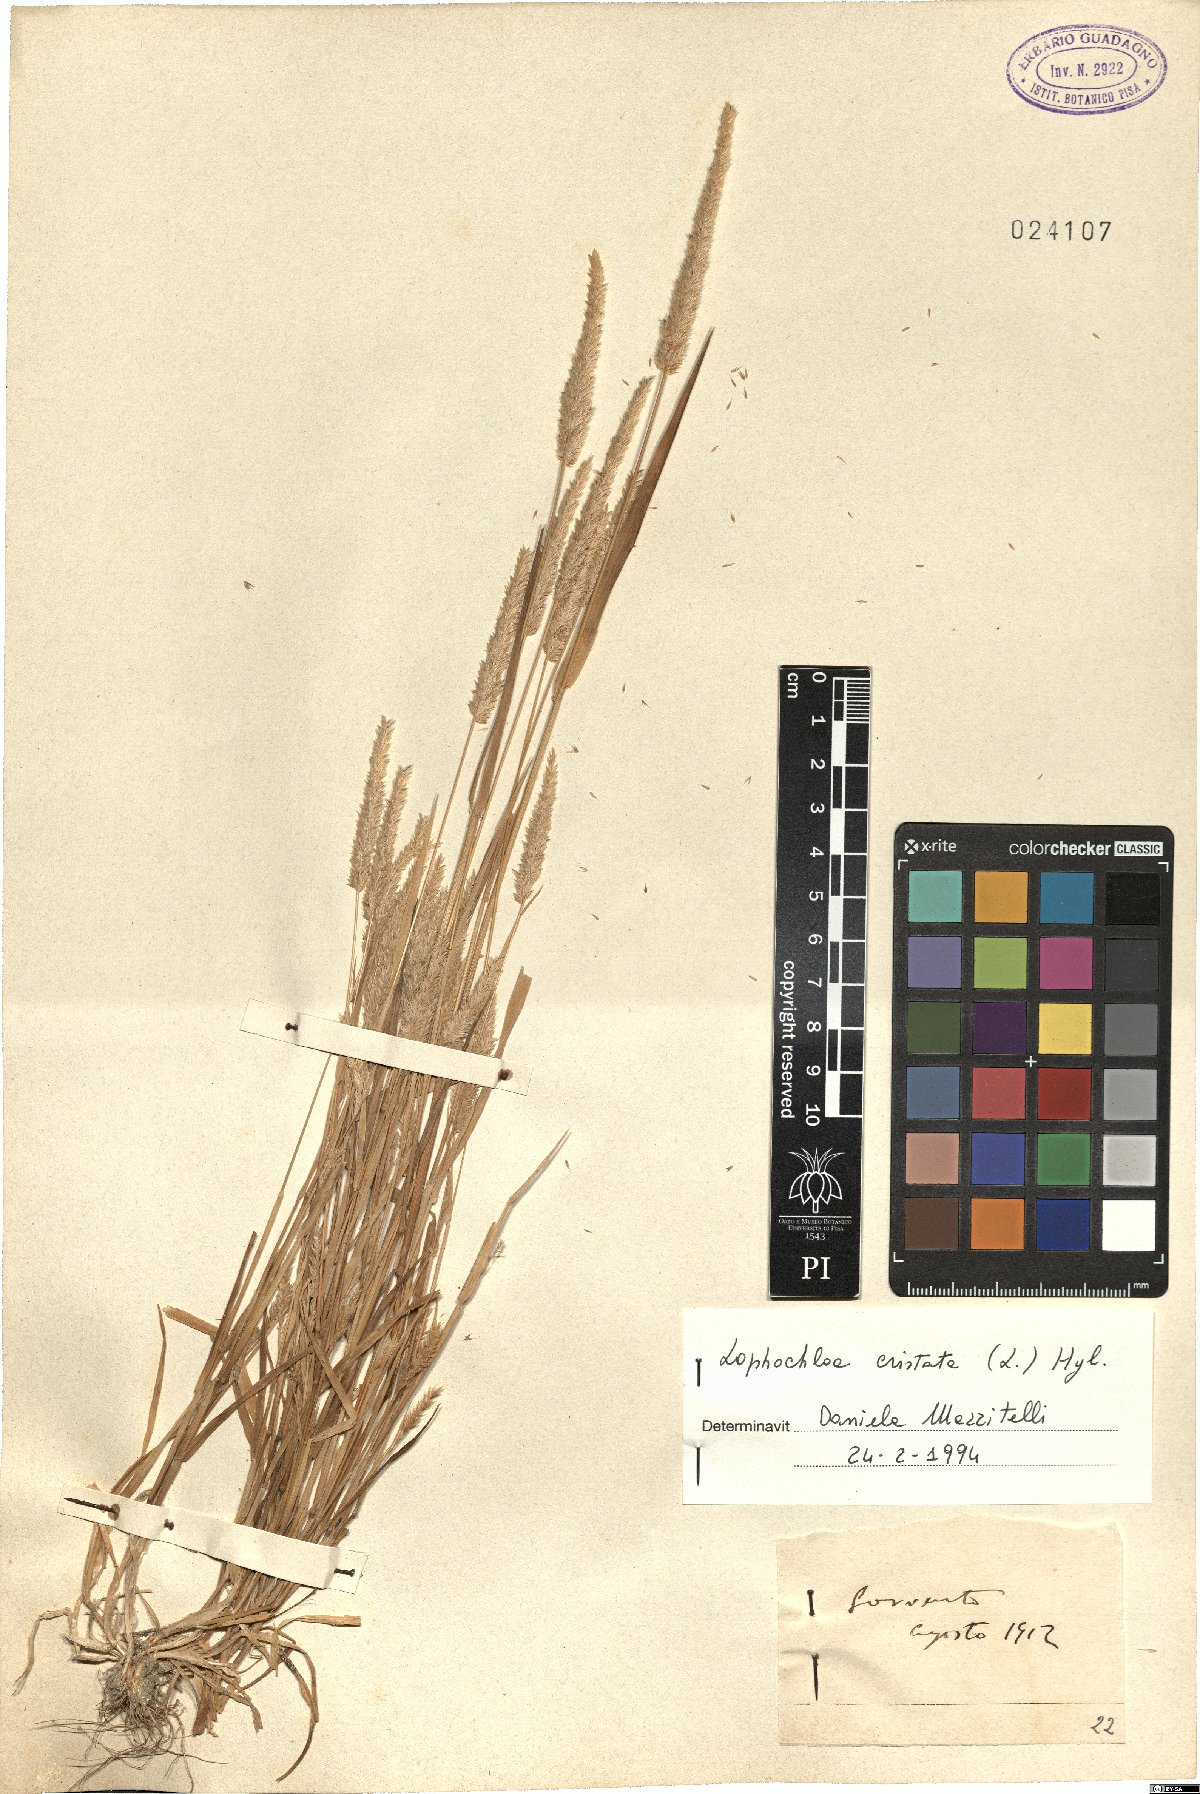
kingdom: Plantae
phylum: Tracheophyta
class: Liliopsida
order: Poales
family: Poaceae
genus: Rostraria
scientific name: Rostraria cristata
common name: Mediterranean hair-grass
